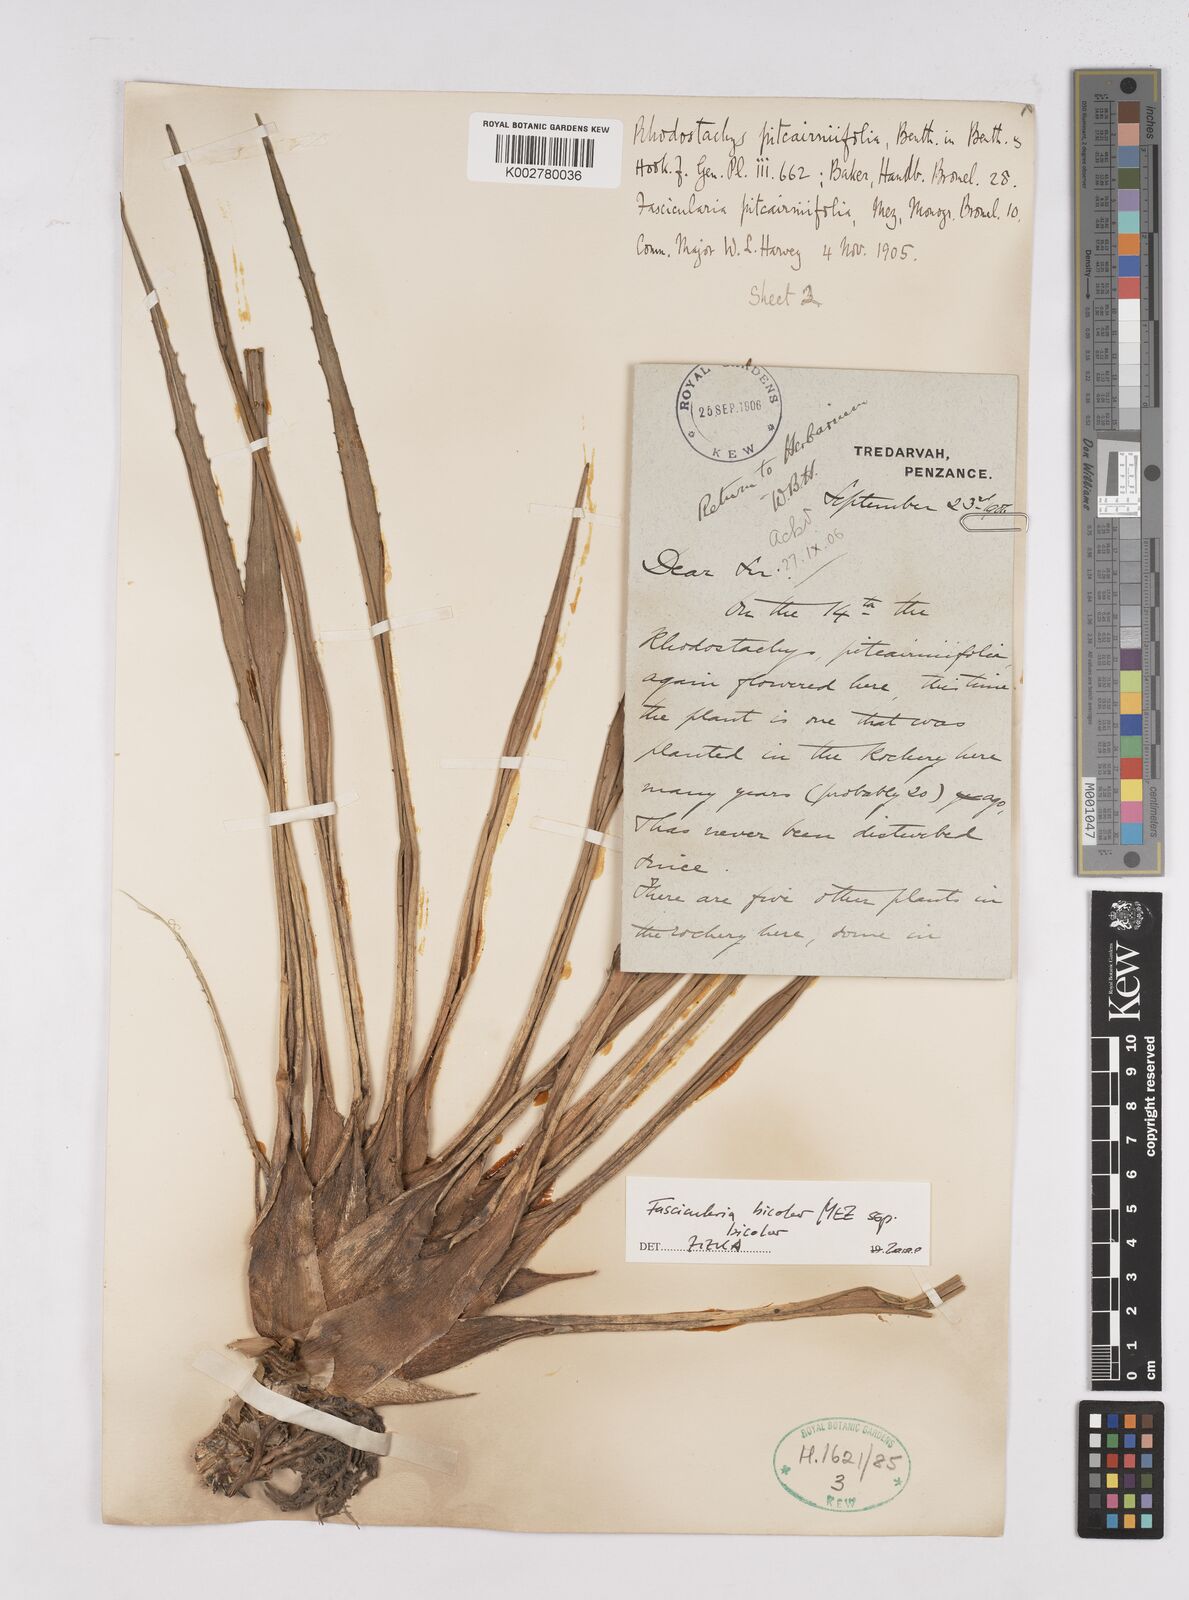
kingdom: Plantae
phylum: Tracheophyta
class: Liliopsida
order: Poales
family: Bromeliaceae
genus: Hechtia
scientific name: Hechtia pitcairniifolia
